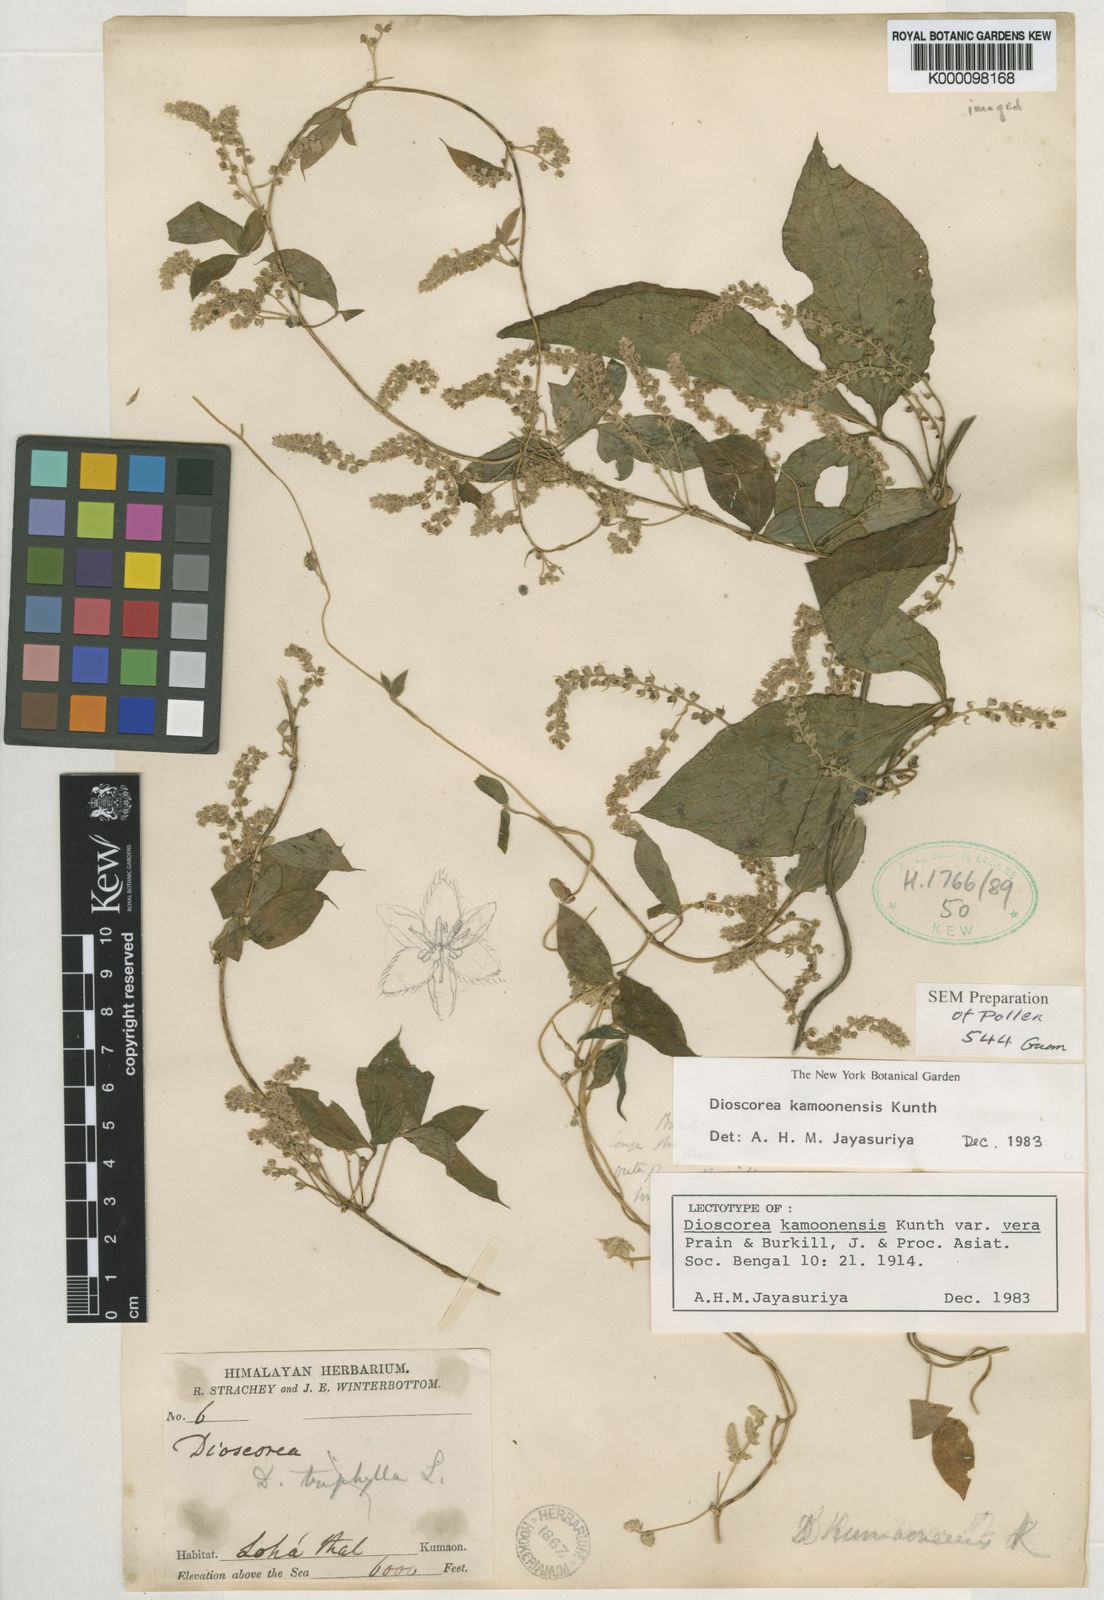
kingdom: Plantae
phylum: Tracheophyta
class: Liliopsida
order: Dioscoreales
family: Dioscoreaceae
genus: Dioscorea
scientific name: Dioscorea kamoonensis
